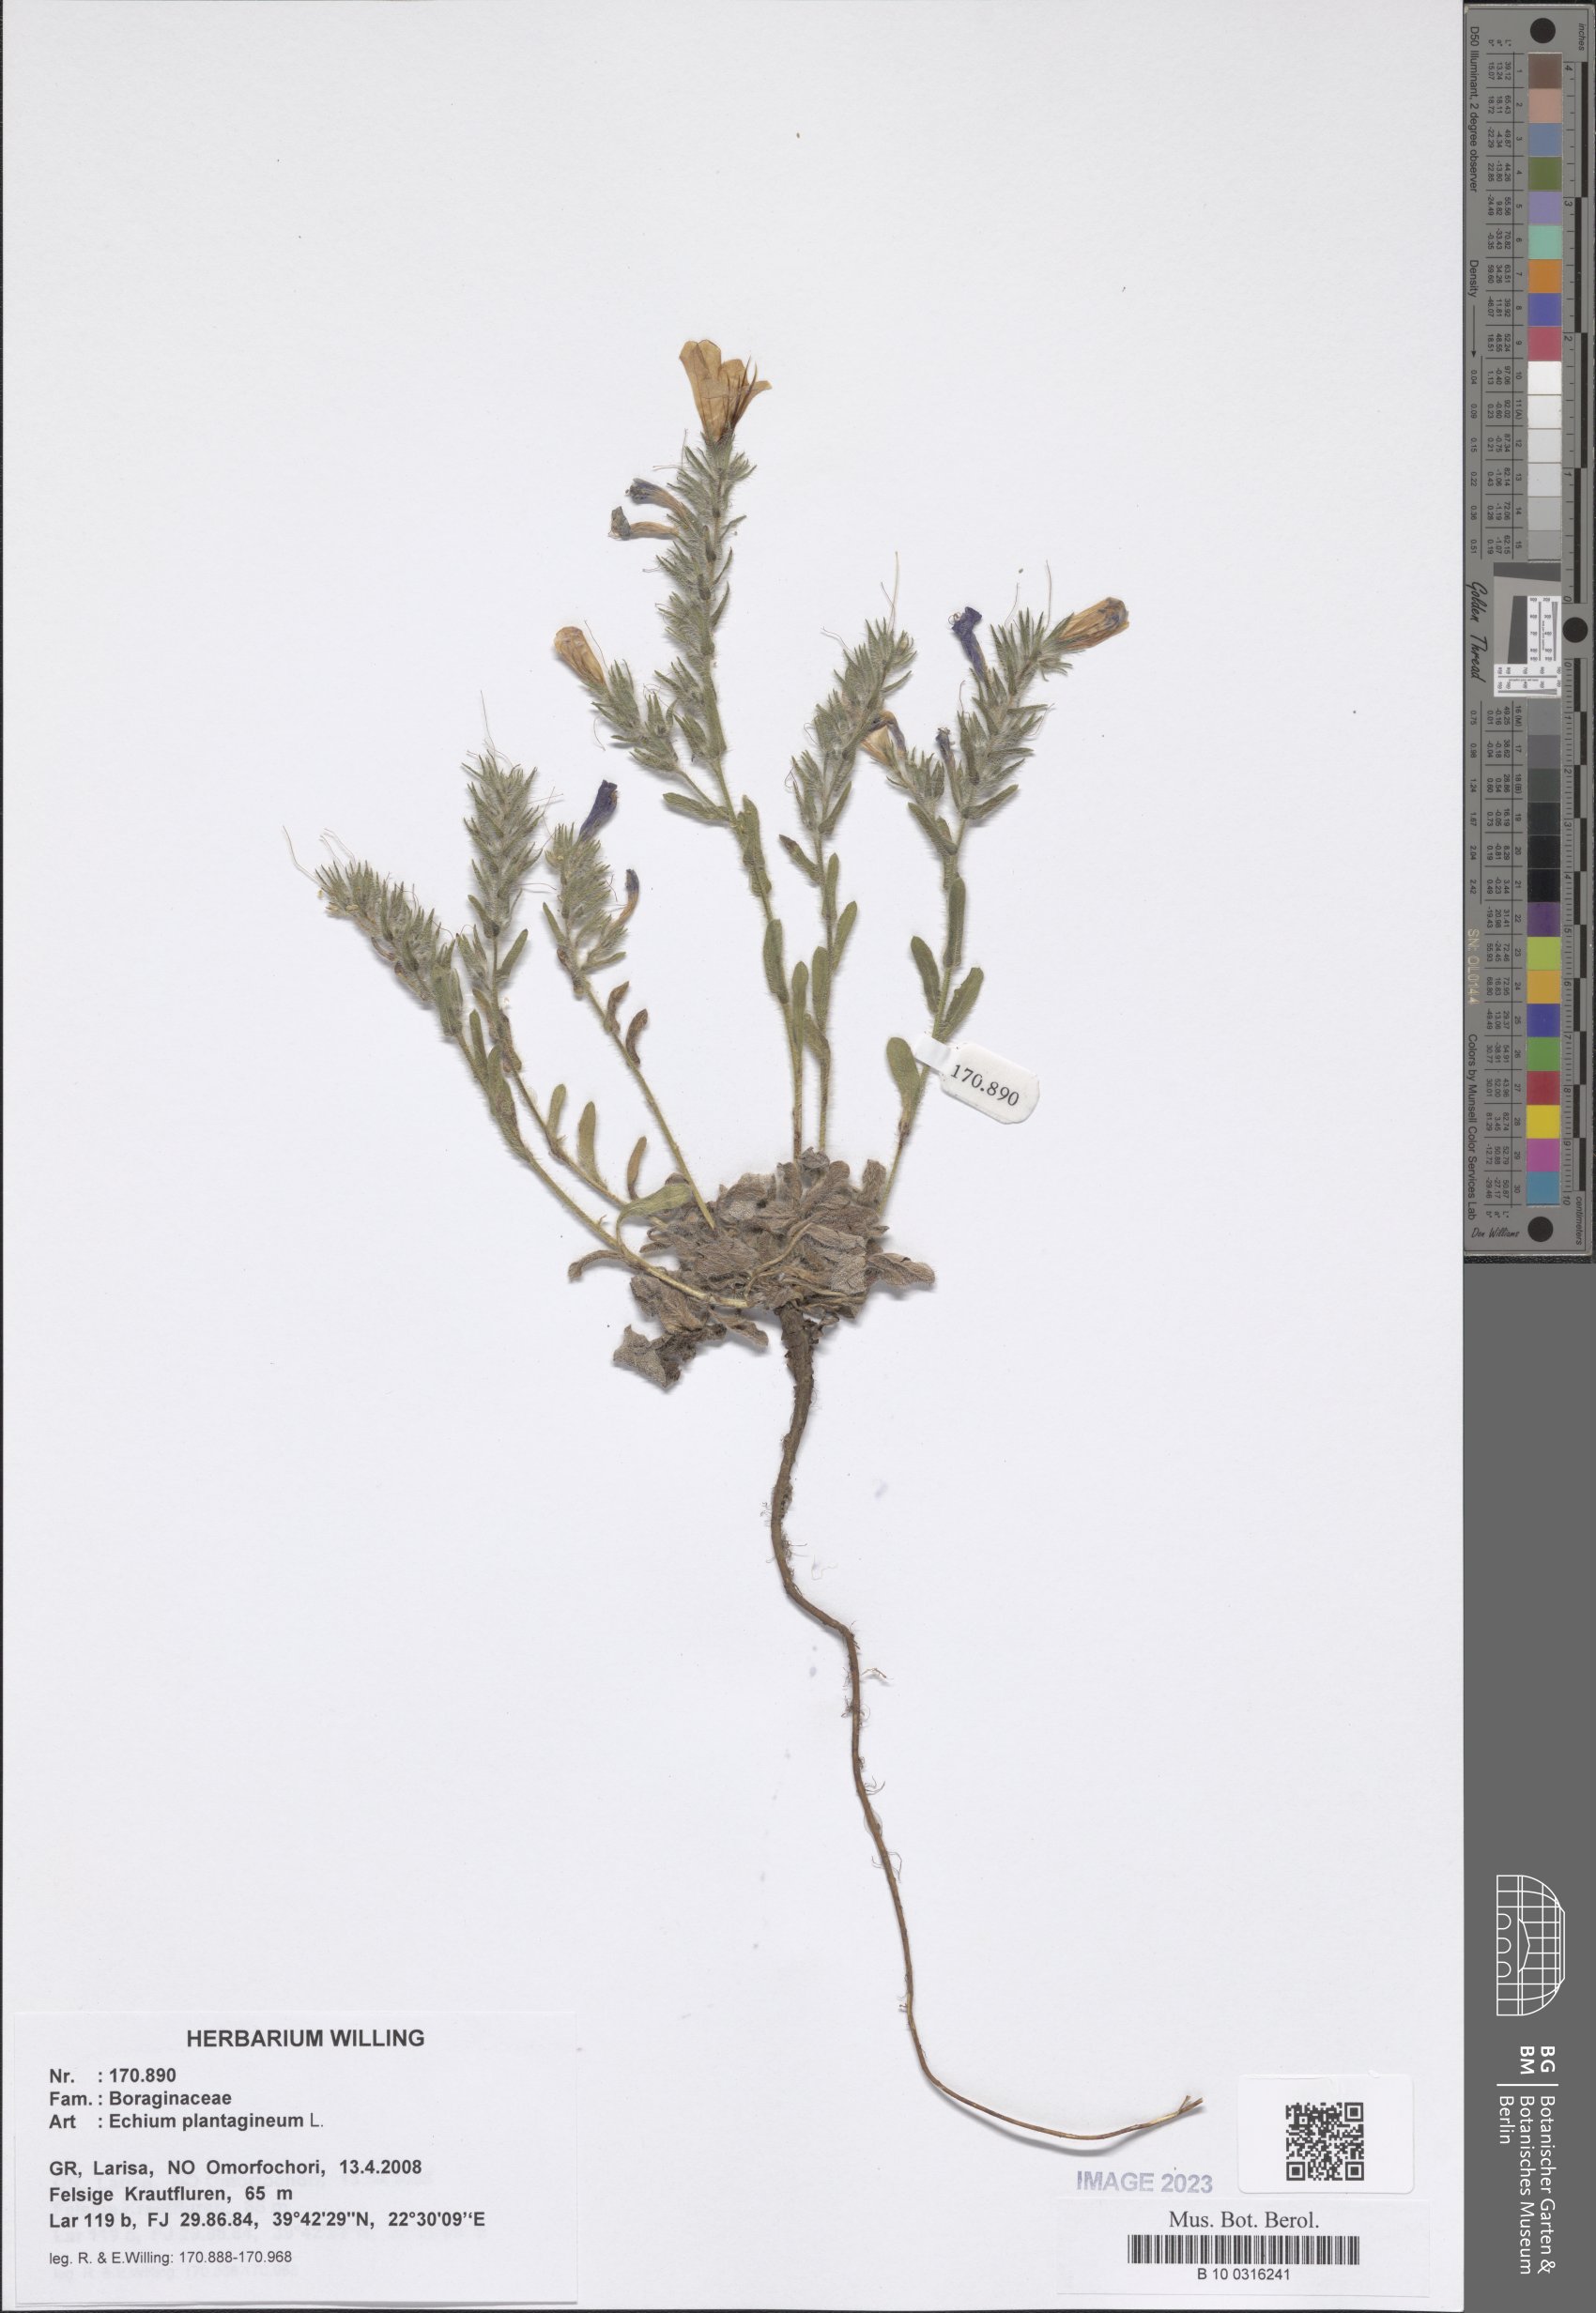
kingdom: Plantae
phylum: Tracheophyta
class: Magnoliopsida
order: Boraginales
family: Boraginaceae
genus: Echium
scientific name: Echium plantagineum
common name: Purple viper's-bugloss
